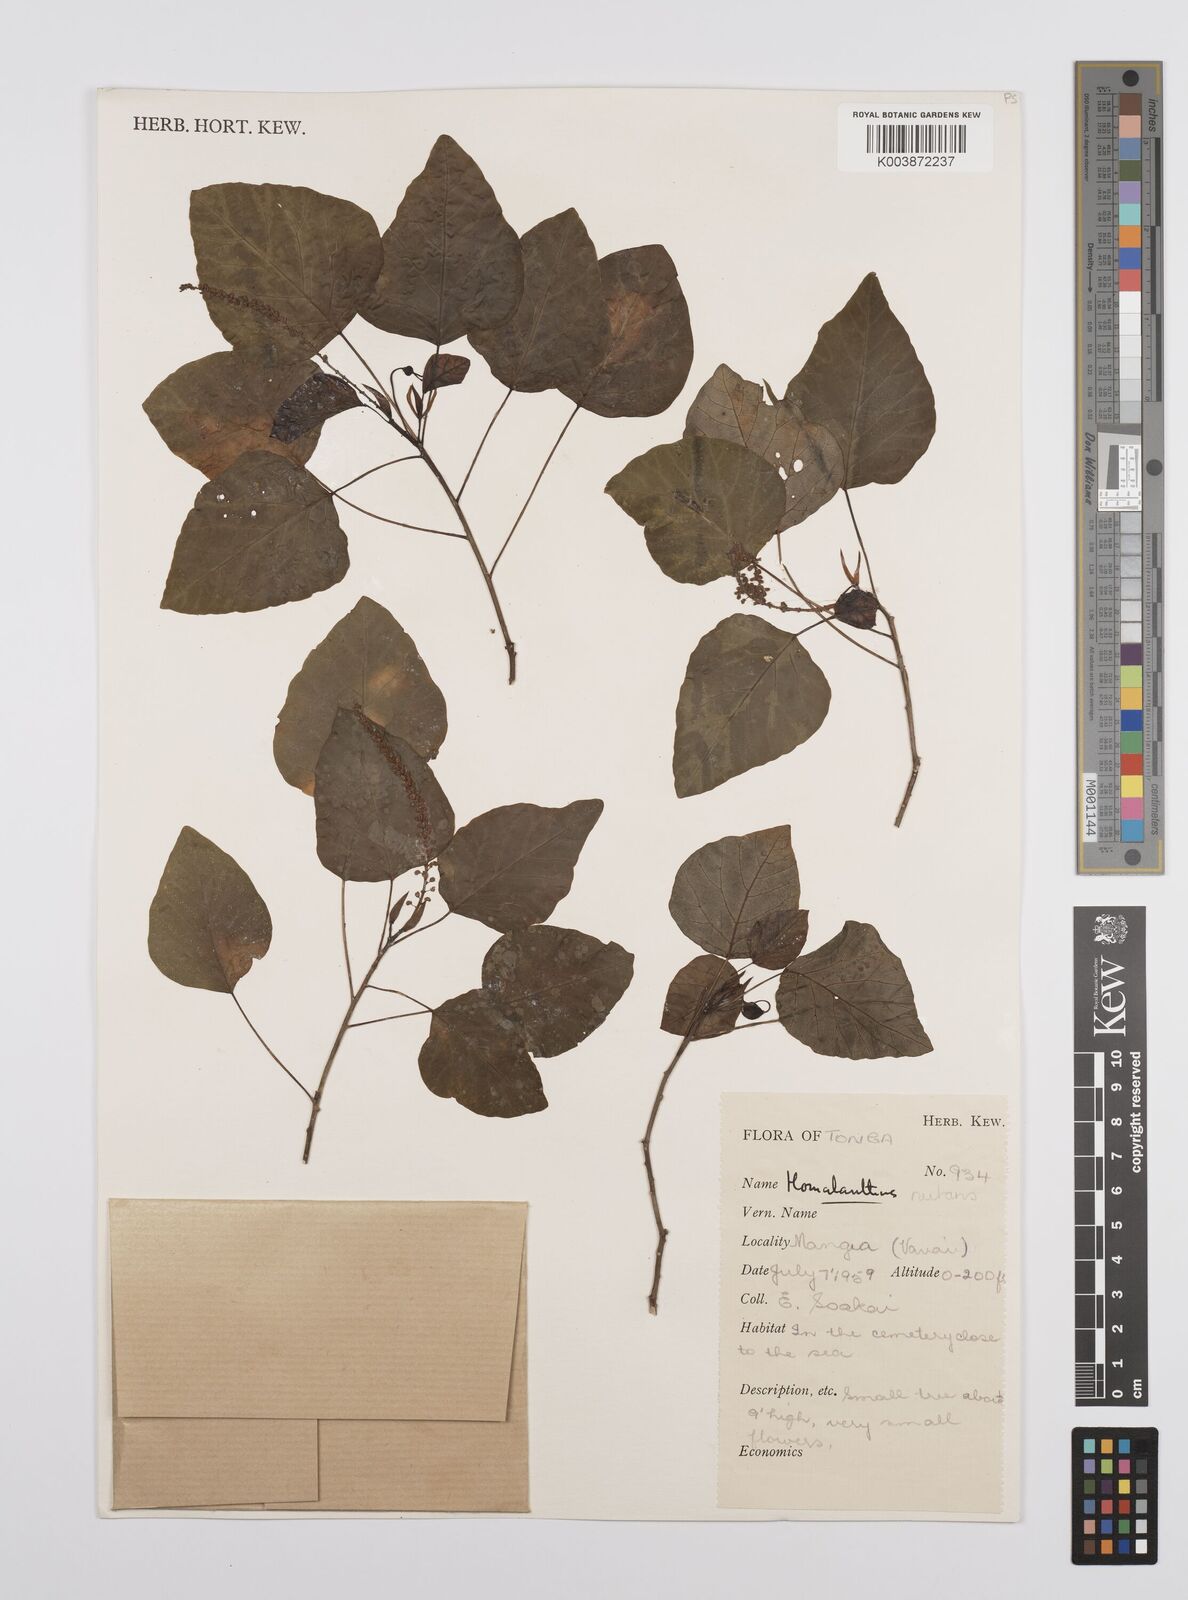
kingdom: Plantae
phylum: Tracheophyta
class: Magnoliopsida
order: Malpighiales
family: Euphorbiaceae
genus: Homalanthus
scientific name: Homalanthus nutans
